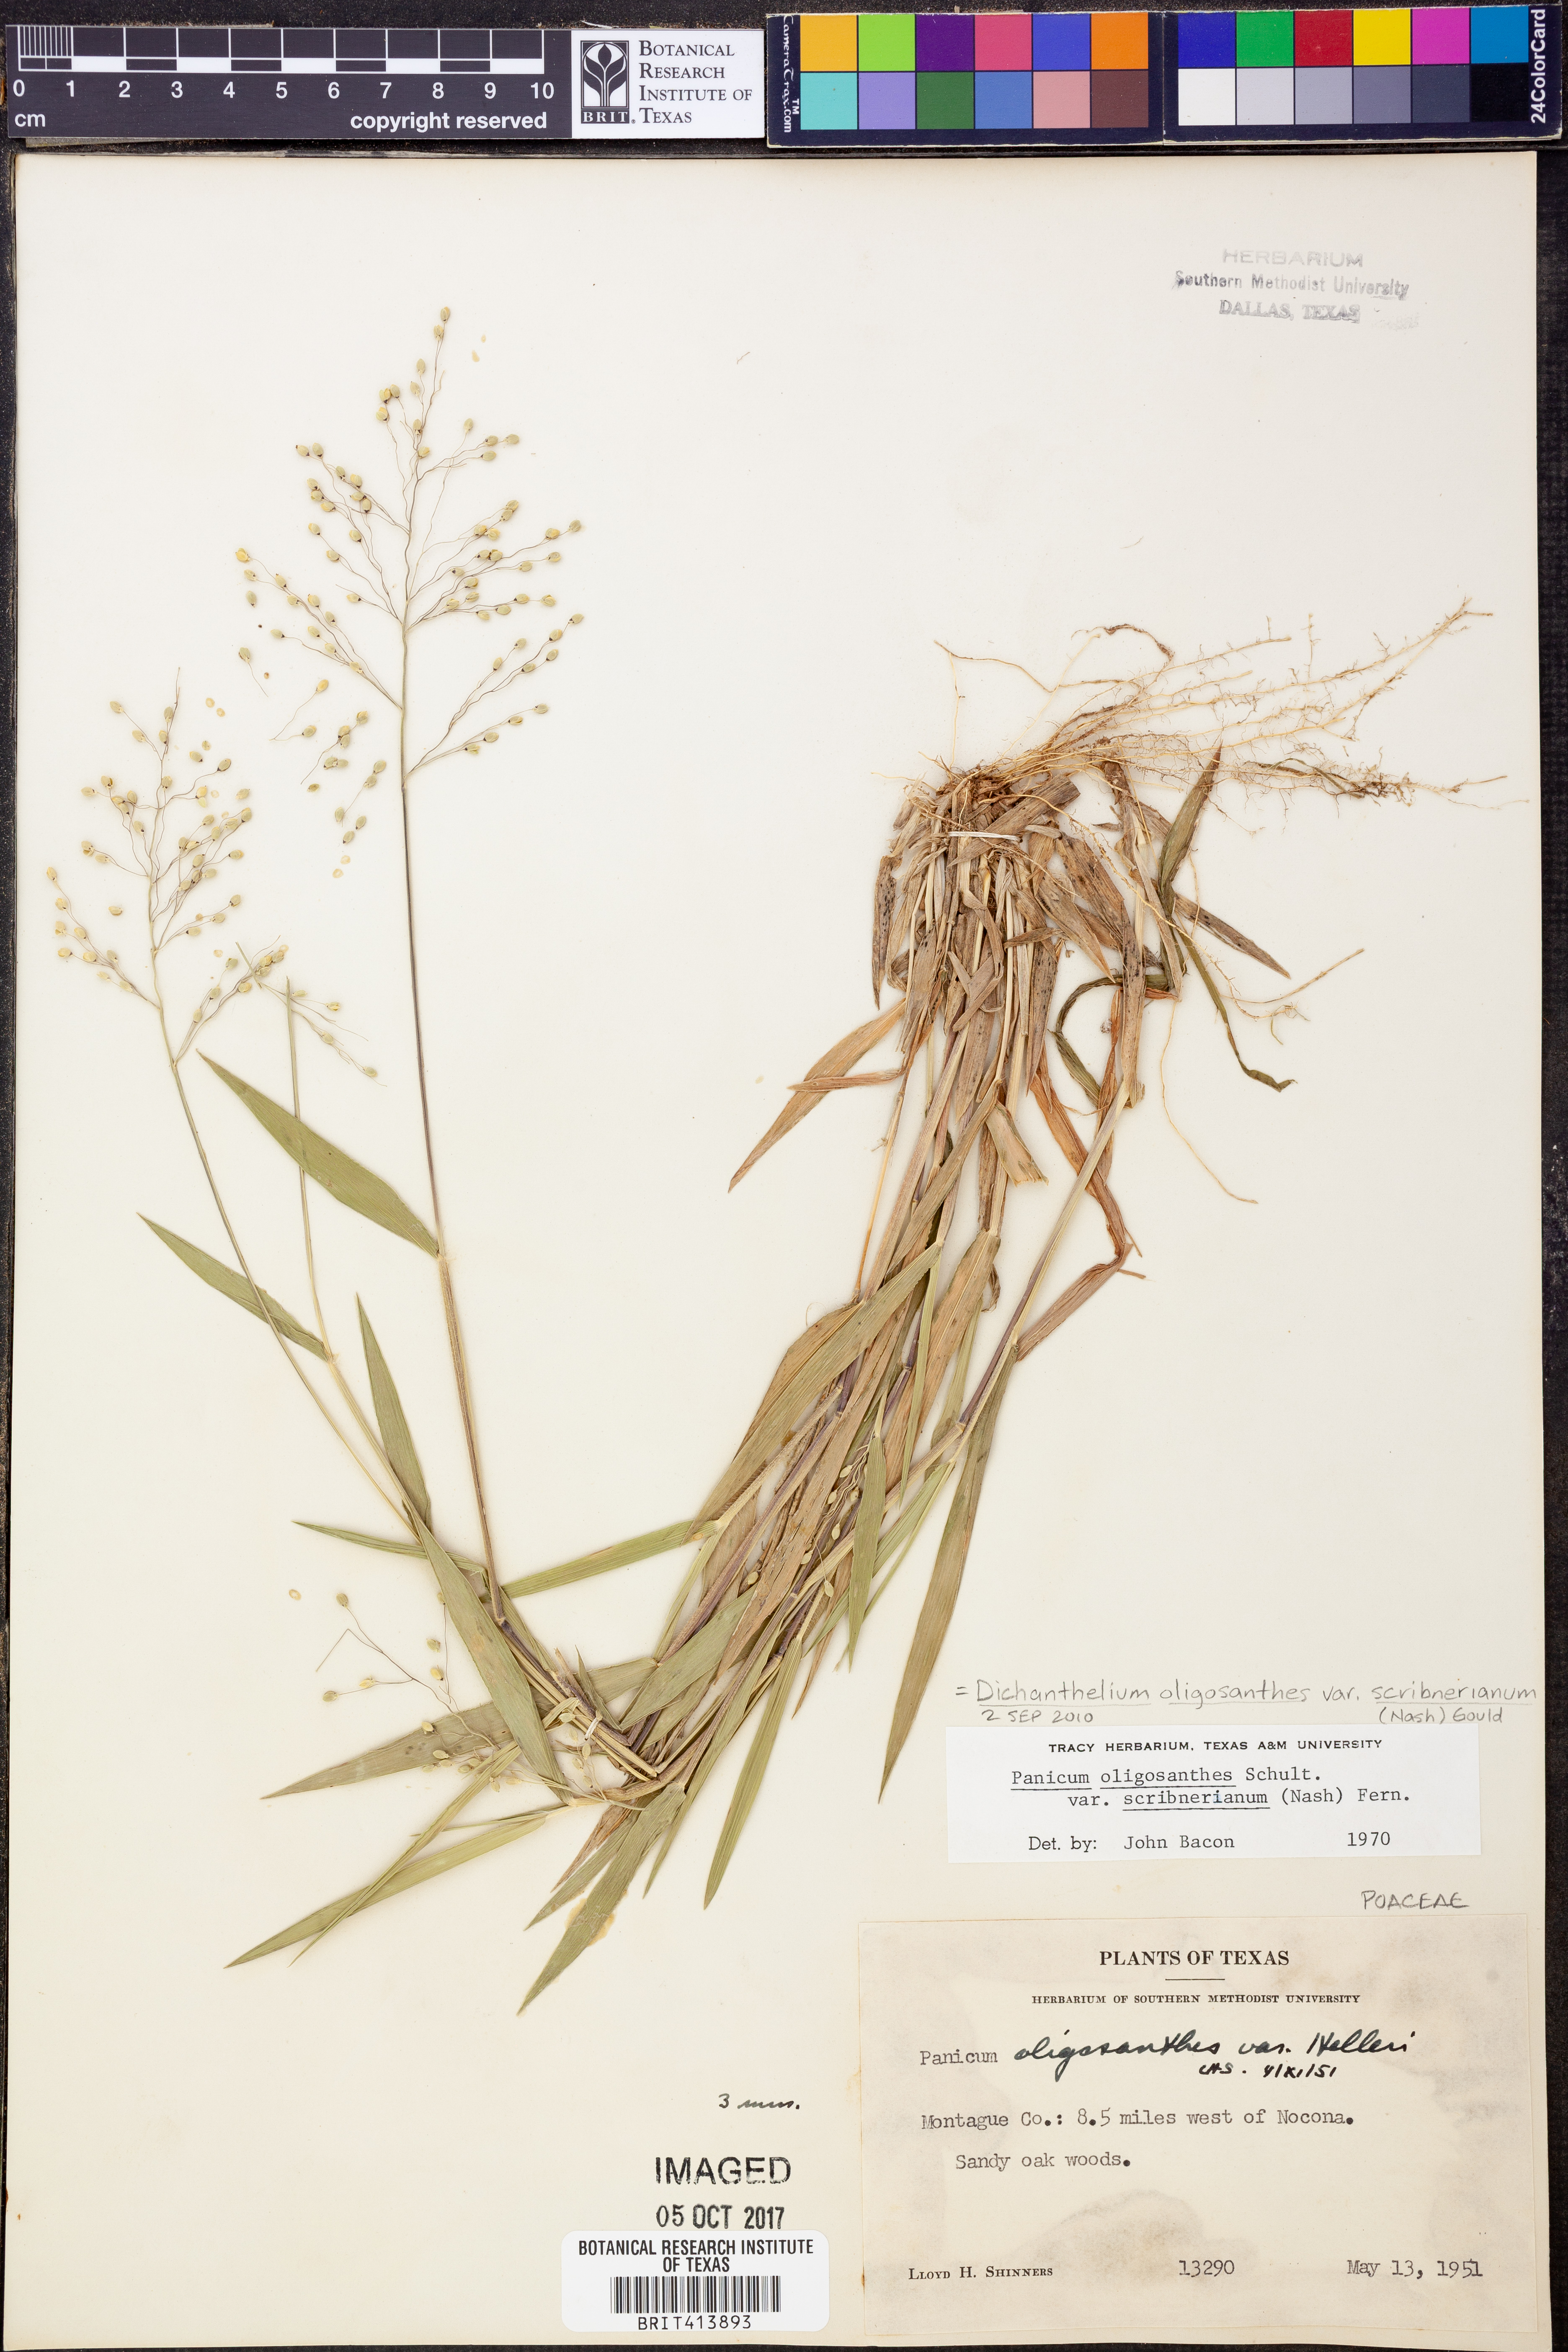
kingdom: Plantae
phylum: Tracheophyta
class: Liliopsida
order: Poales
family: Poaceae
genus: Dichanthelium
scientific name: Dichanthelium scribnerianum
